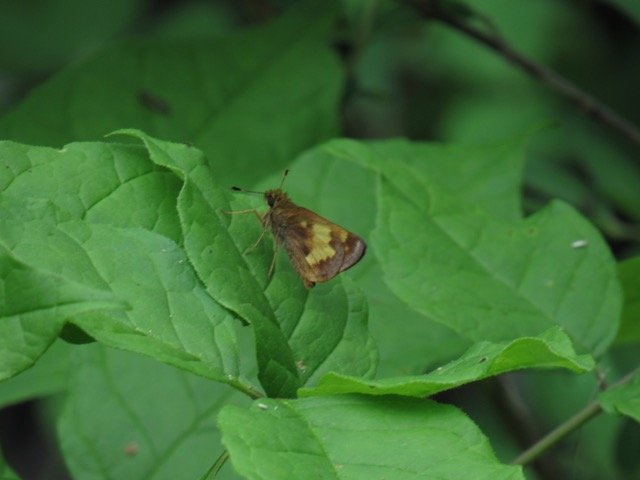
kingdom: Animalia
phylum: Arthropoda
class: Insecta
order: Lepidoptera
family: Hesperiidae
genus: Lon
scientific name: Lon hobomok
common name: Hobomok Skipper
